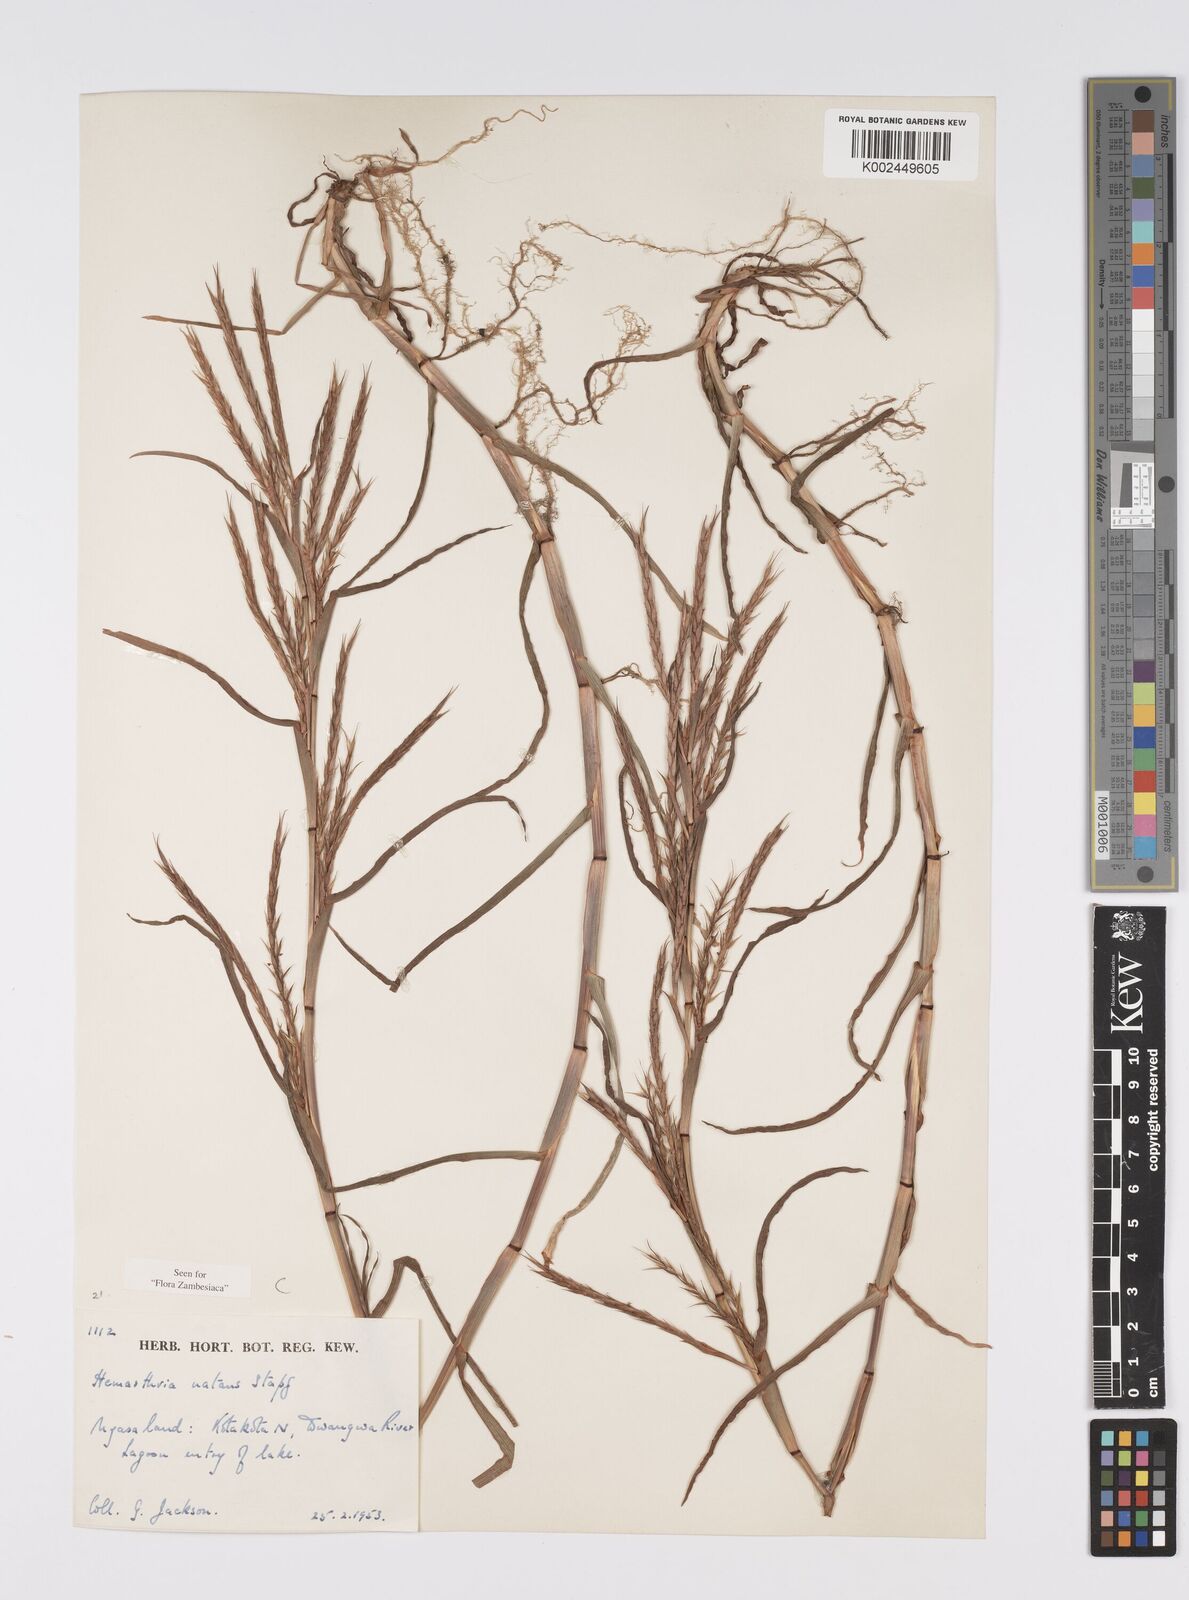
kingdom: Plantae
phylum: Tracheophyta
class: Liliopsida
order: Poales
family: Poaceae
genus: Hemarthria
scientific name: Hemarthria natans
